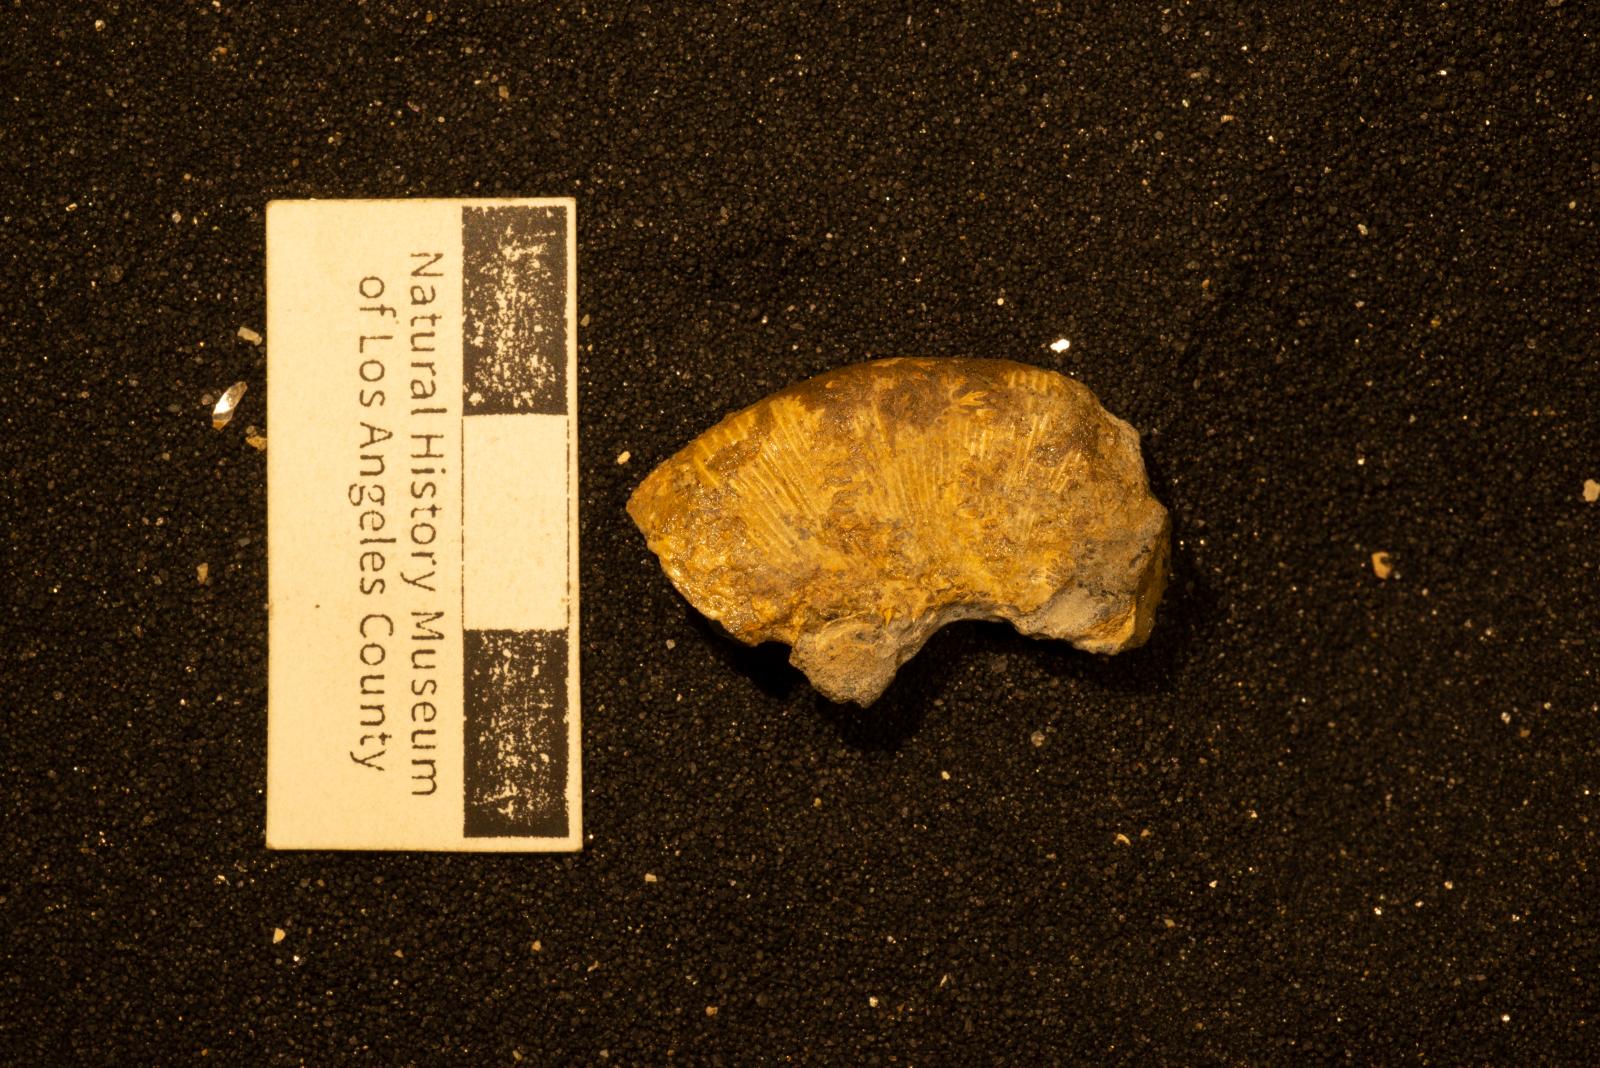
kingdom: Animalia
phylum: Mollusca
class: Cephalopoda
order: Phylloceratida
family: Phylloceratidae
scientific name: Phylloceratidae
